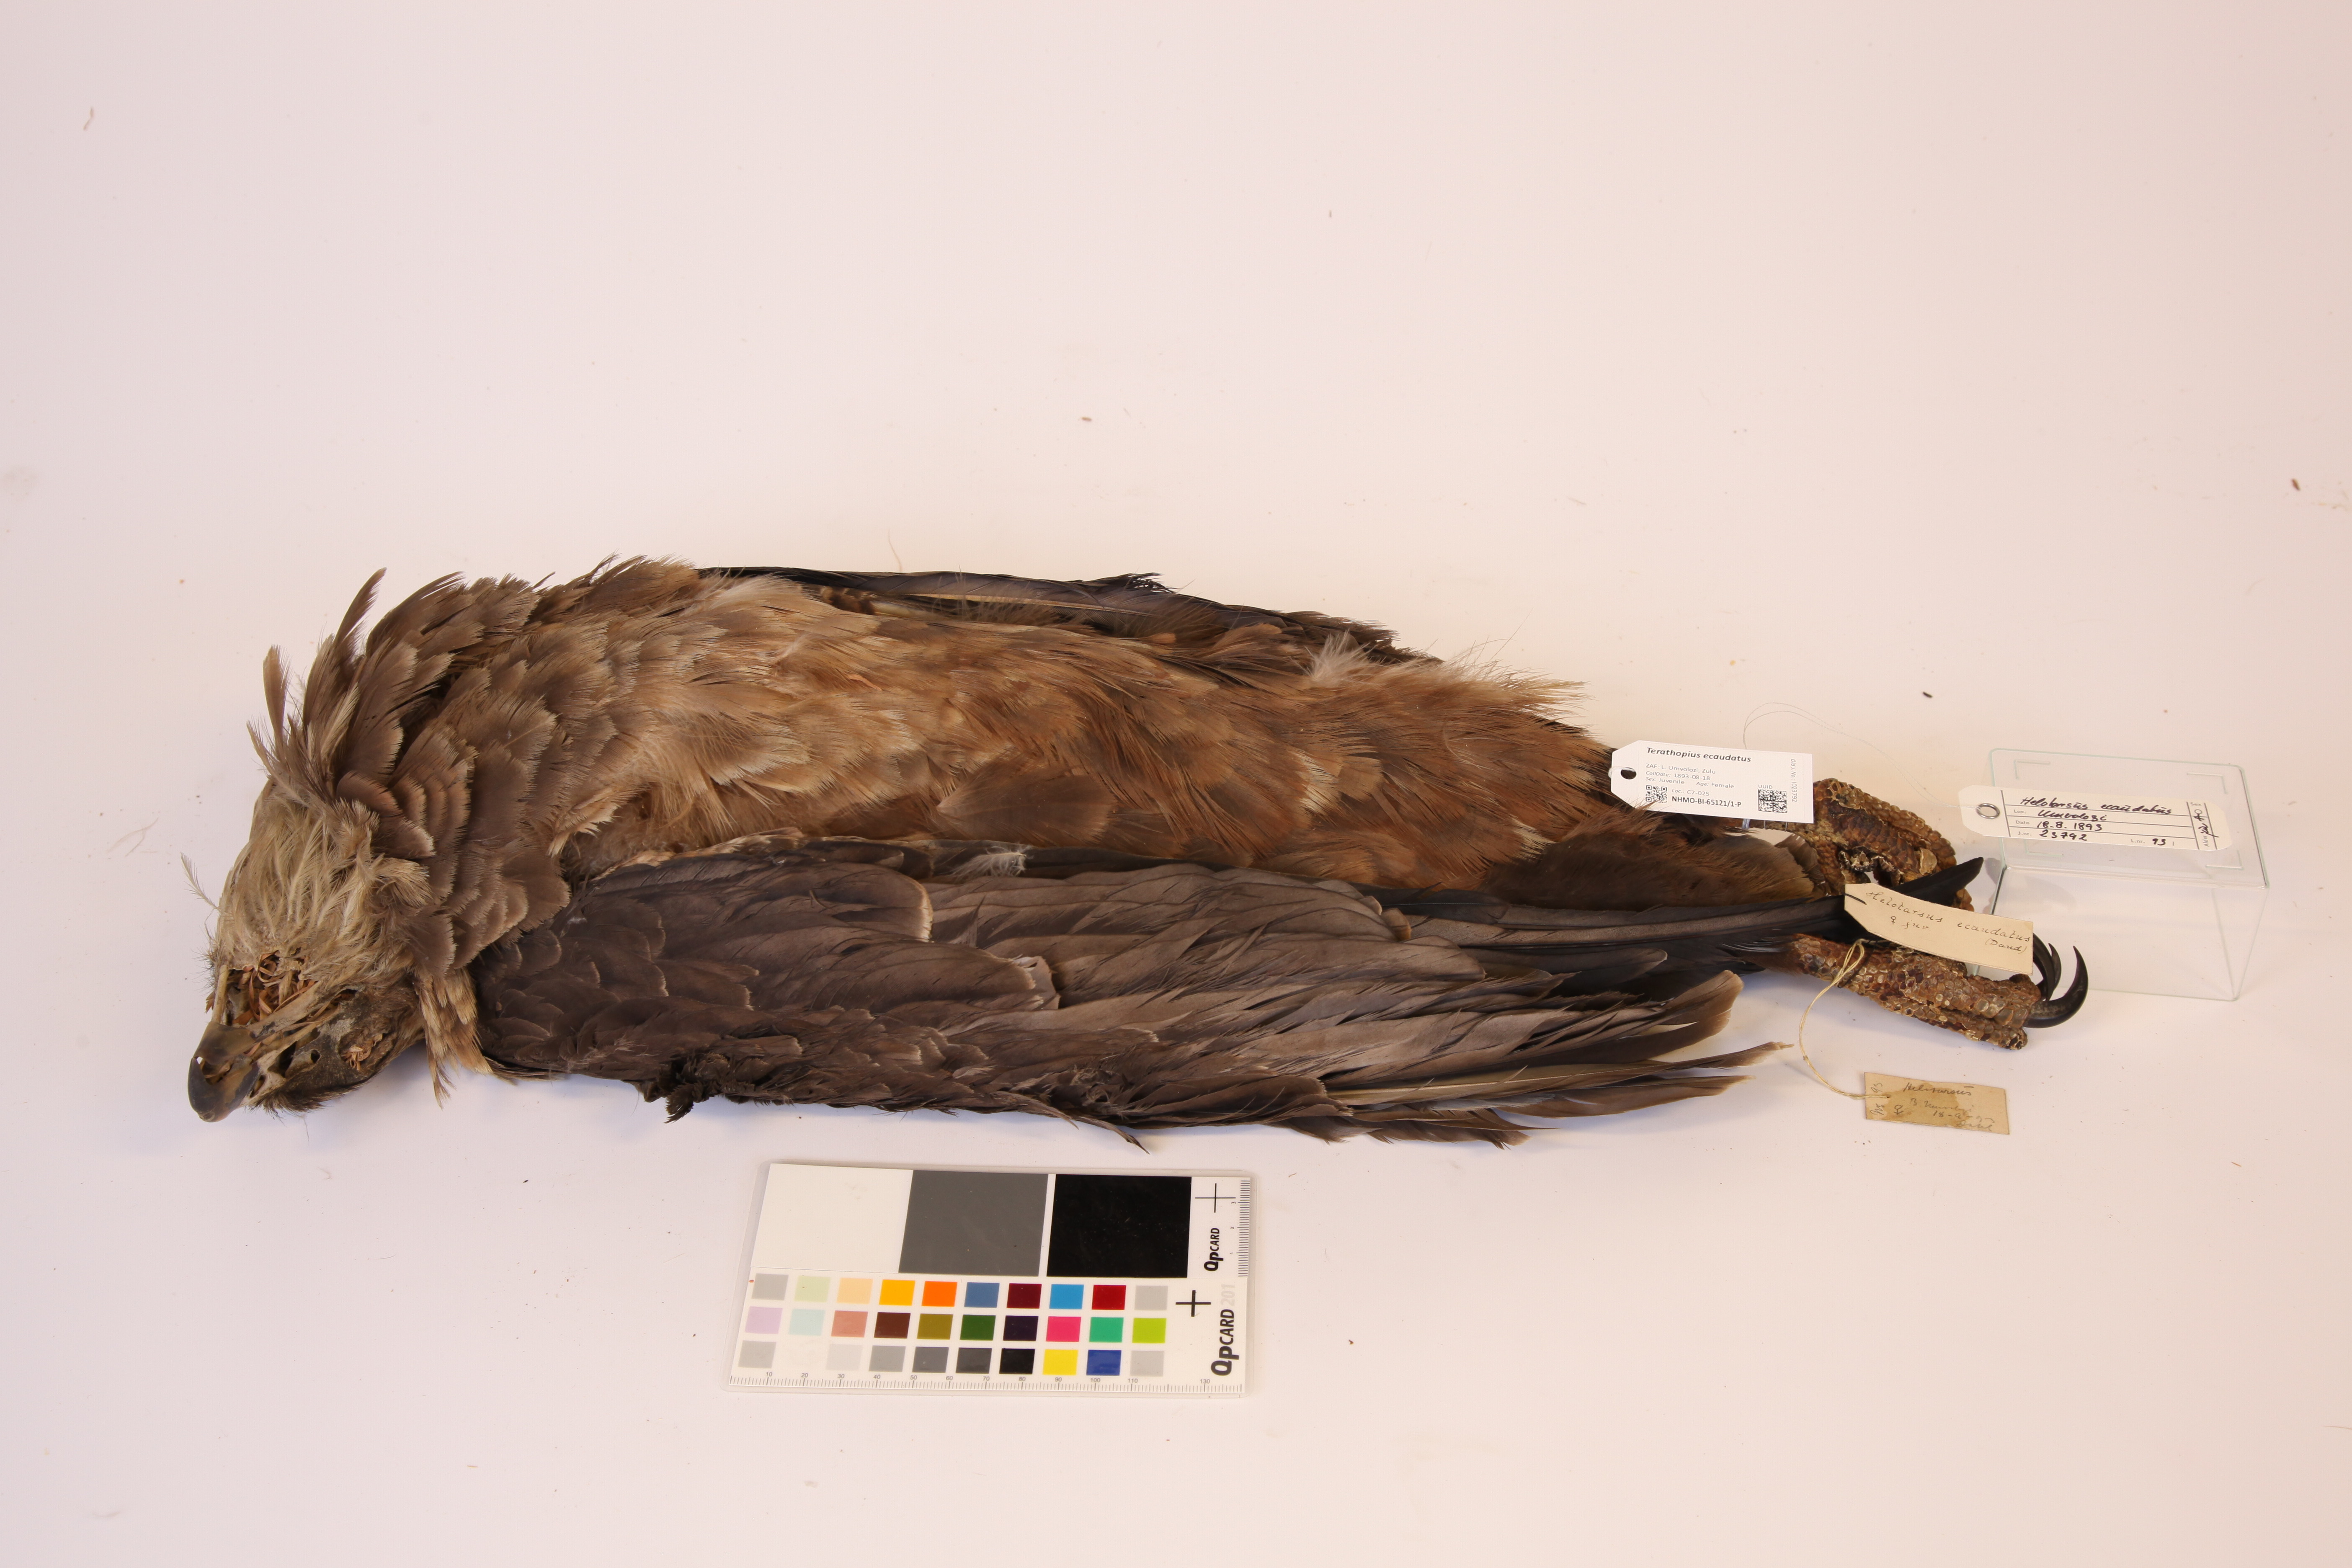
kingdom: Animalia
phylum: Chordata
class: Aves
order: Accipitriformes
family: Accipitridae
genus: Terathopius
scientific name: Terathopius ecaudatus
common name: Bateleur
